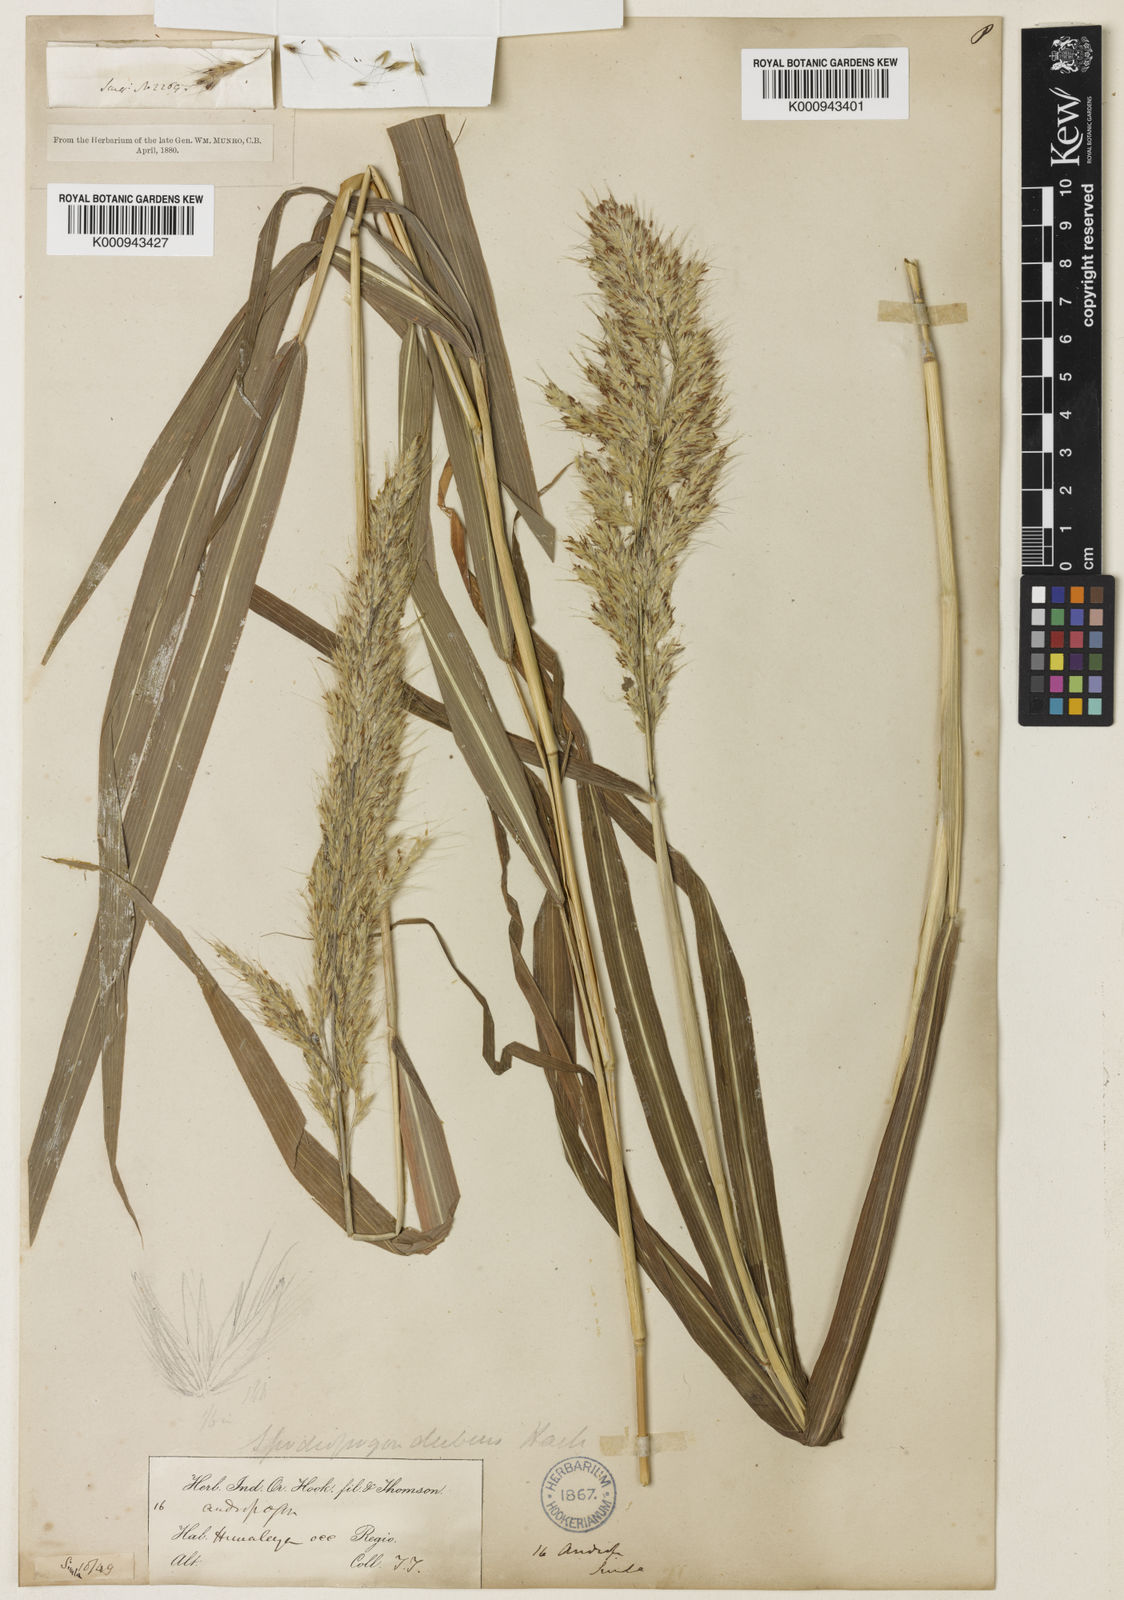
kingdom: Plantae
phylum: Tracheophyta
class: Liliopsida
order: Poales
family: Poaceae
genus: Spodiopogon
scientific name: Spodiopogon dubius
